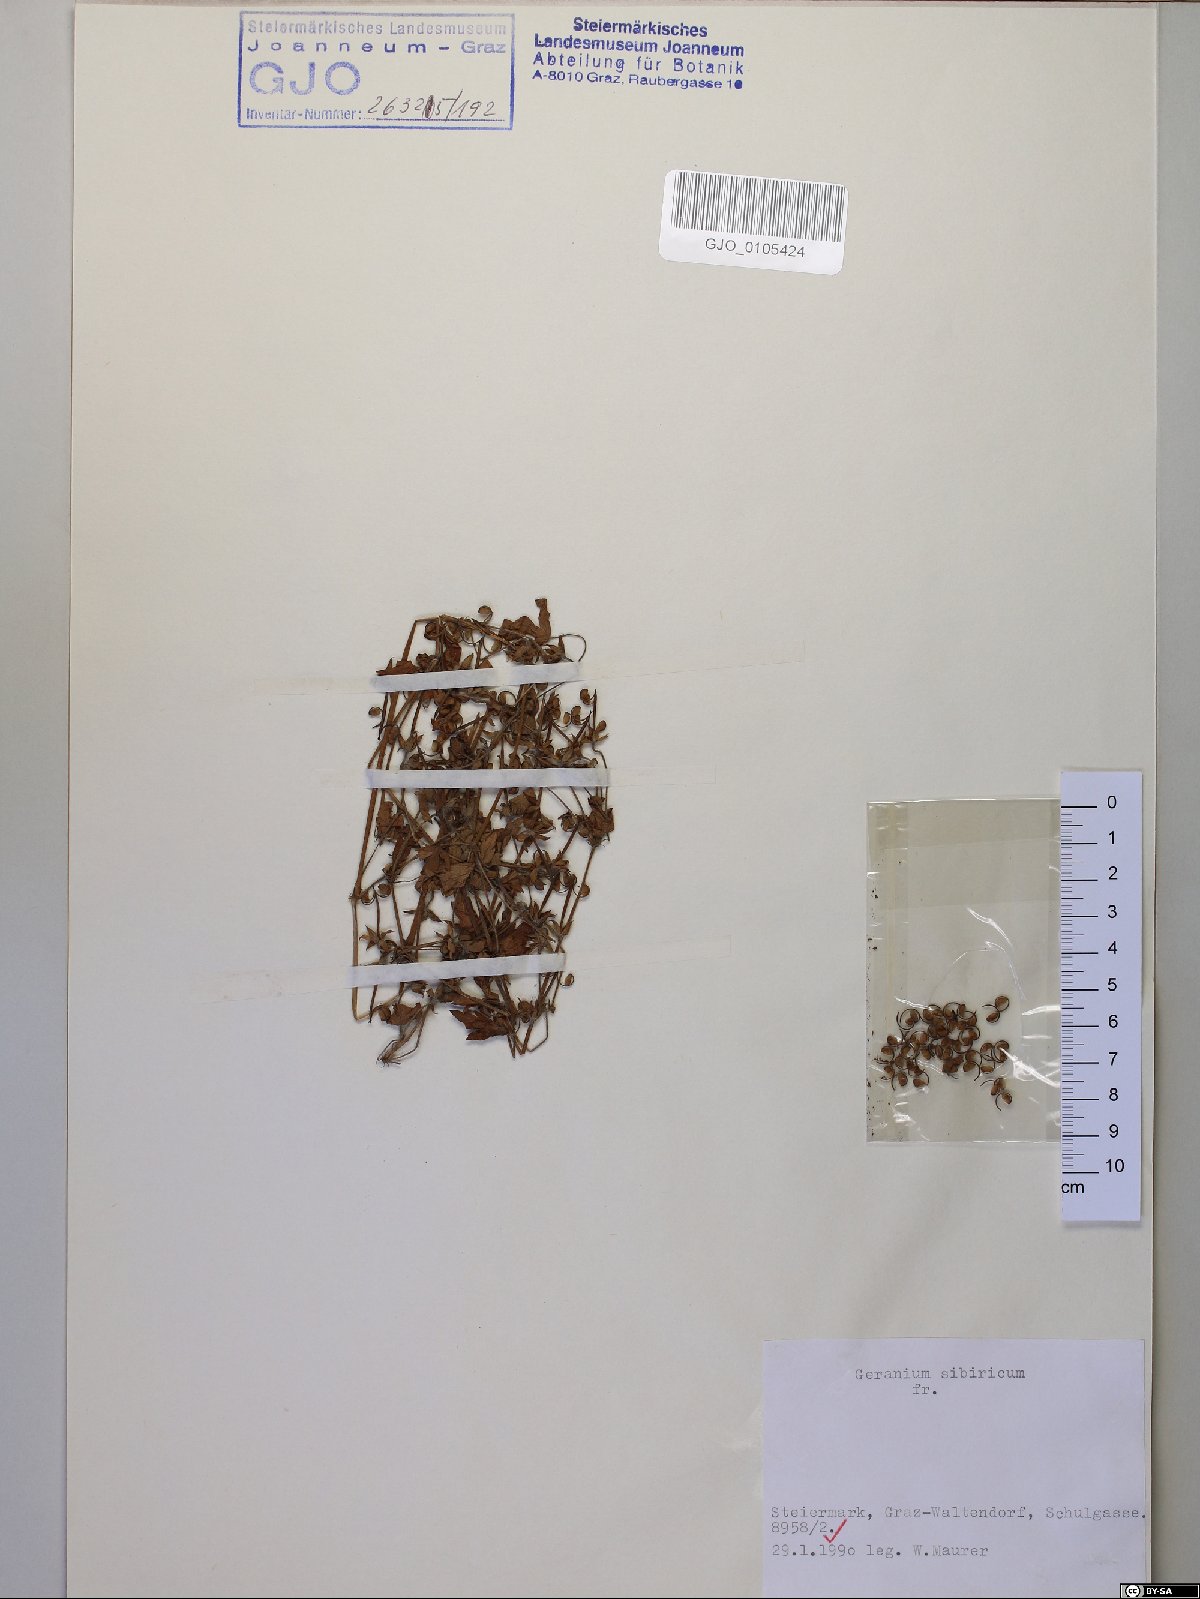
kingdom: Plantae
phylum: Tracheophyta
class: Magnoliopsida
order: Geraniales
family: Geraniaceae
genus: Geranium
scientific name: Geranium sibiricum
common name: Siberian crane's-bill
